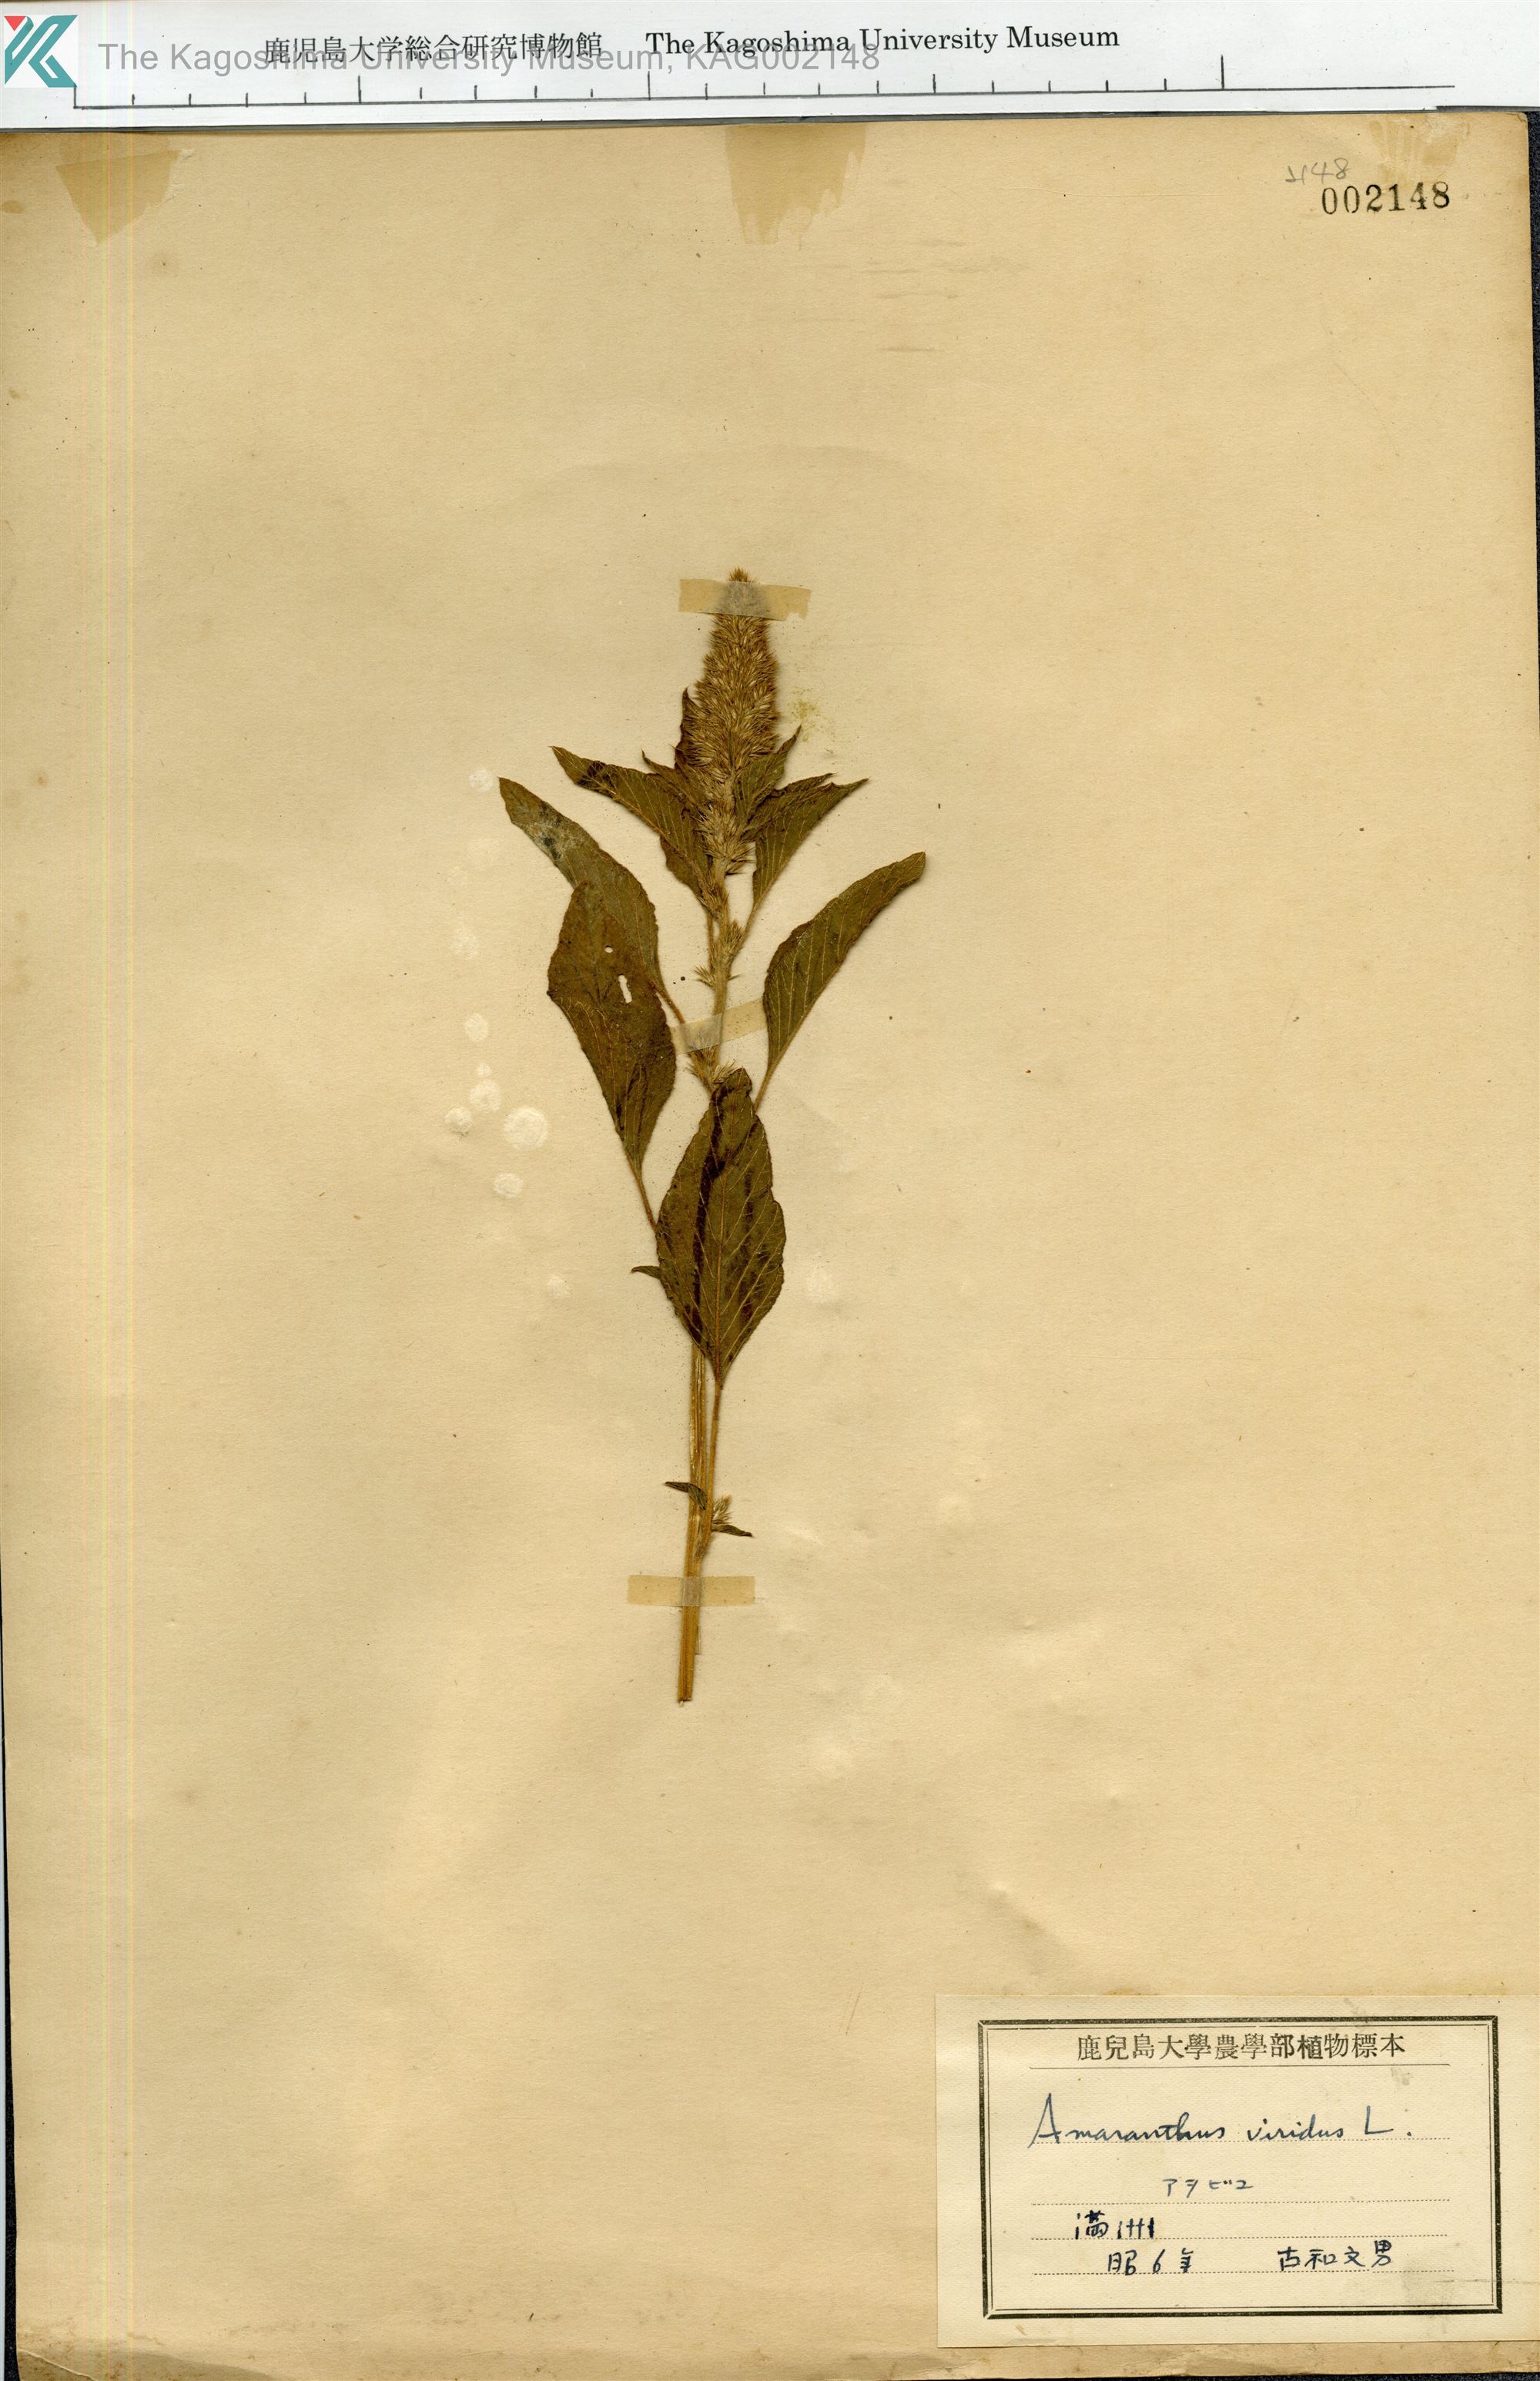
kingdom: Plantae
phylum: Tracheophyta
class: Magnoliopsida
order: Caryophyllales
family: Amaranthaceae
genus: Amaranthus
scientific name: Amaranthus viridis
